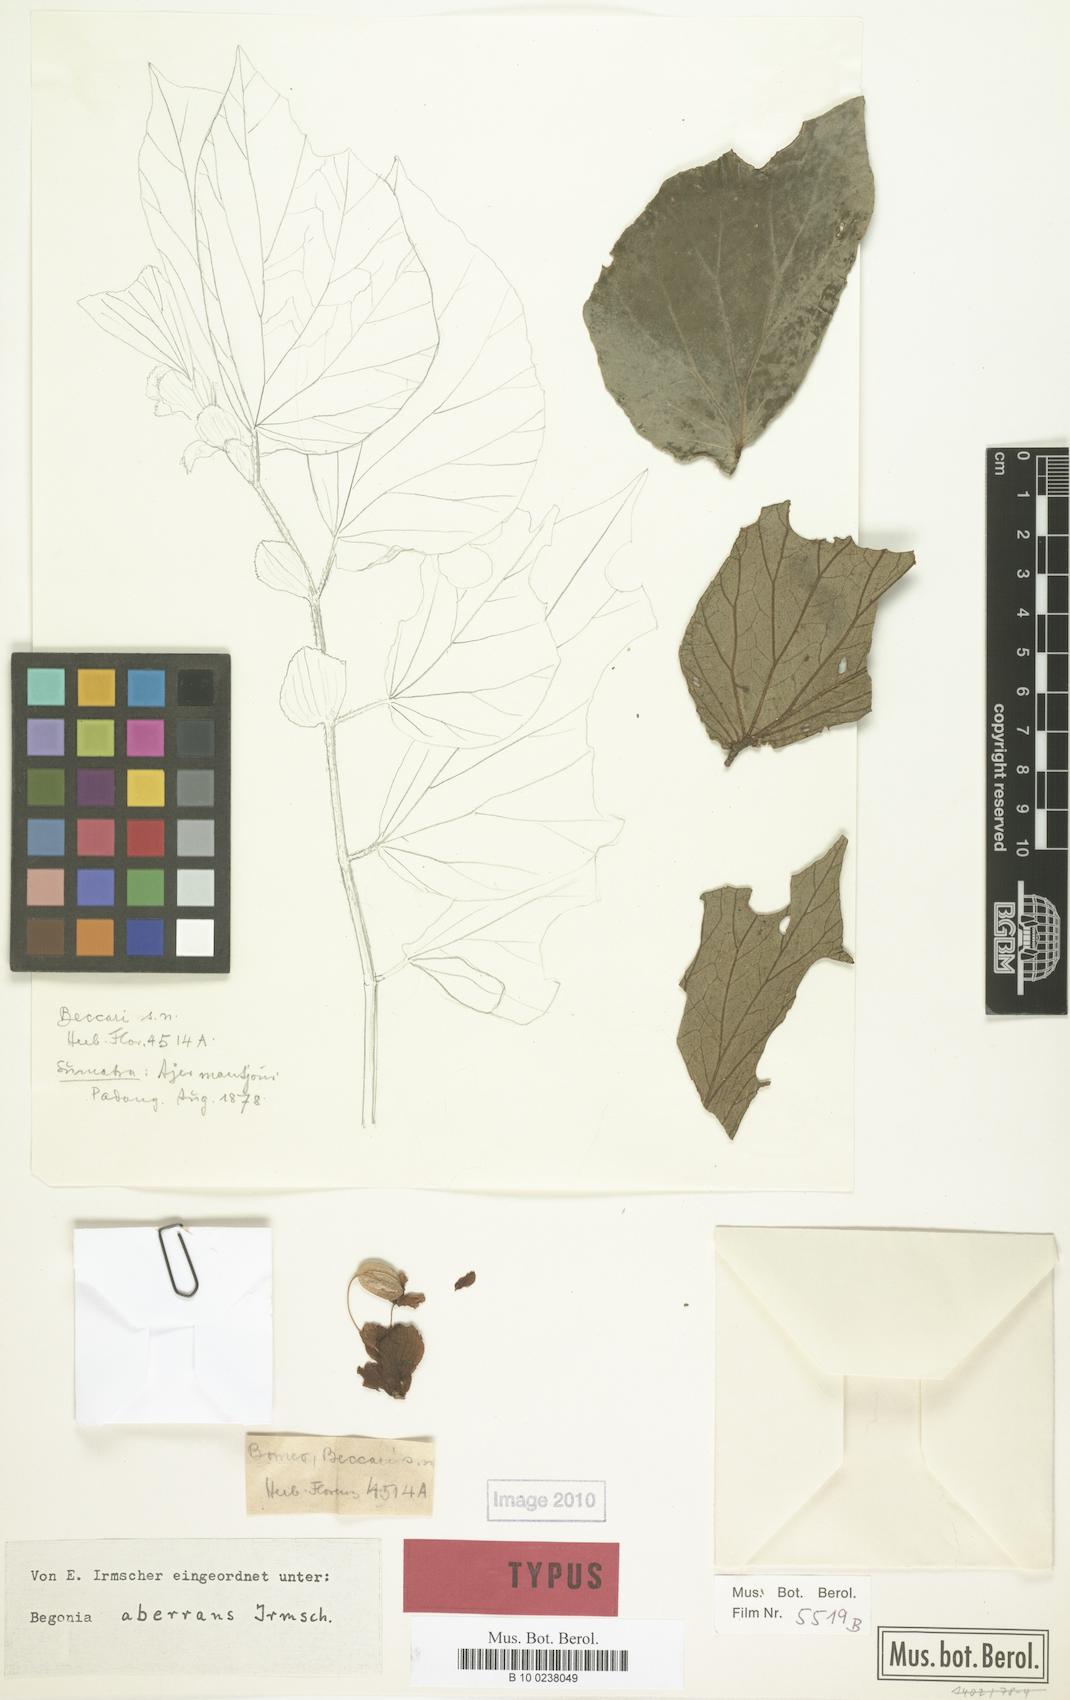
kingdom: Plantae
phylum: Tracheophyta
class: Magnoliopsida
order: Cucurbitales
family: Begoniaceae
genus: Begonia
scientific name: Begonia aberrans
